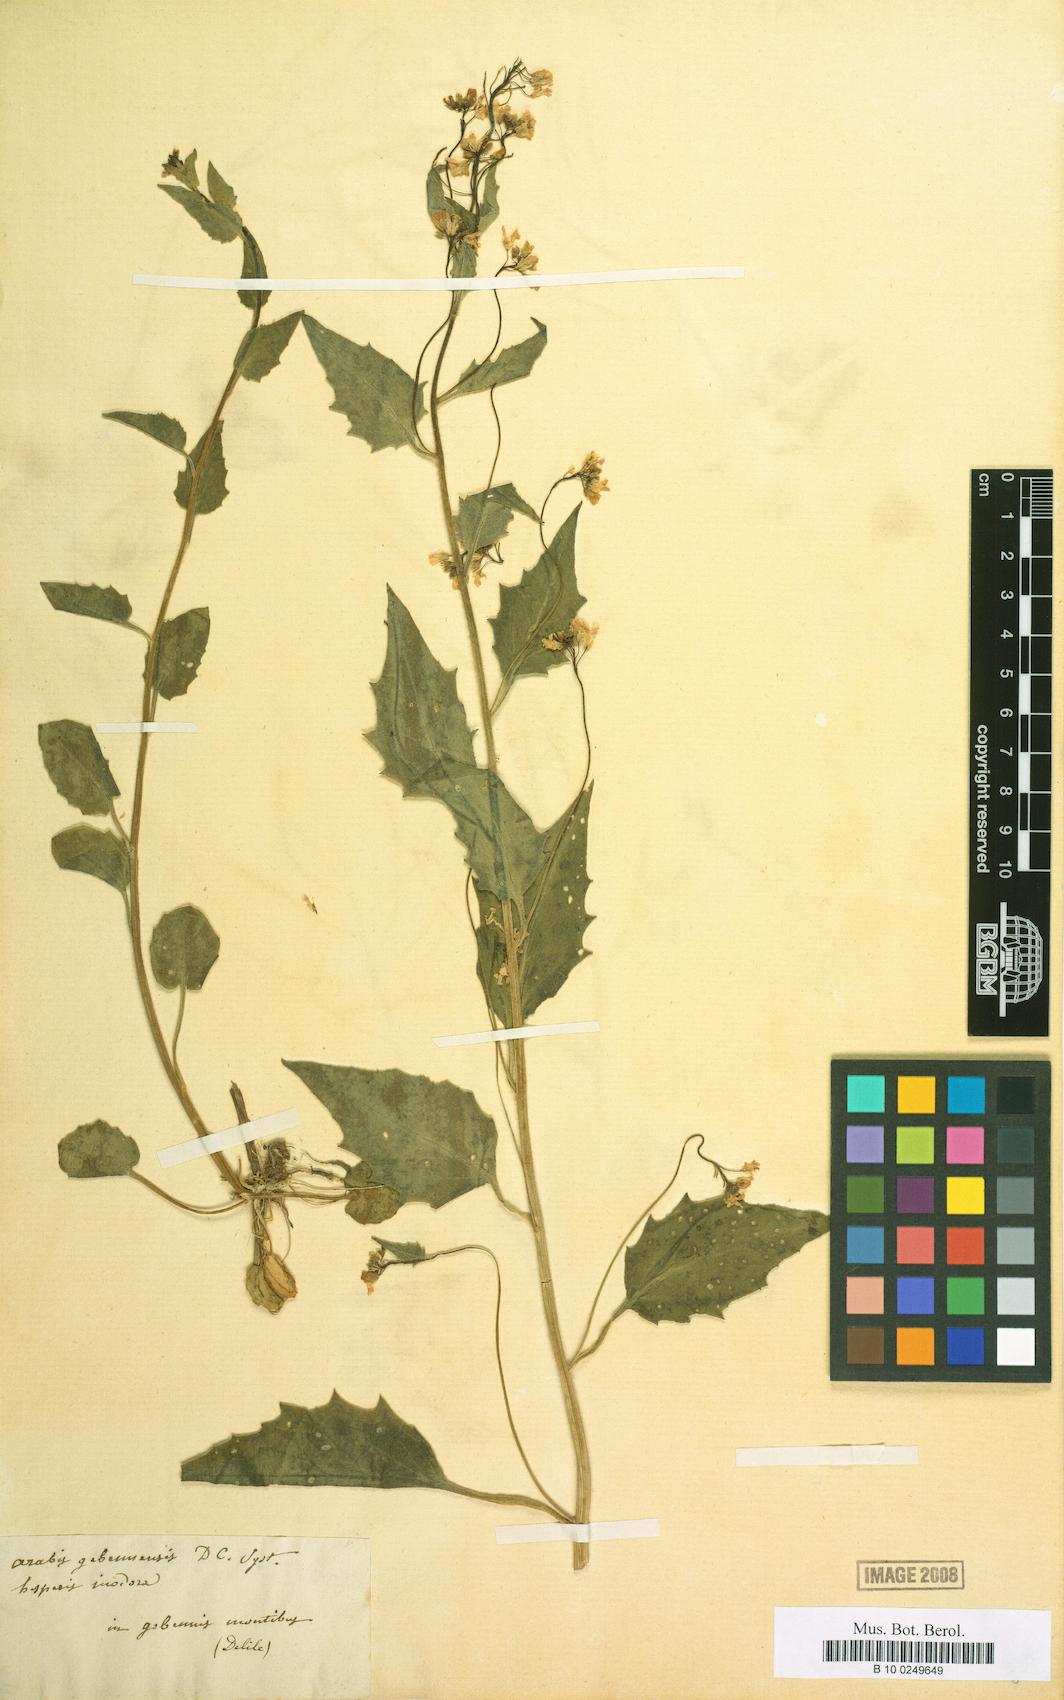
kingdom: Plantae
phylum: Tracheophyta
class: Magnoliopsida
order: Brassicales
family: Brassicaceae
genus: Arabidopsis
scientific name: Arabidopsis cebennensis
